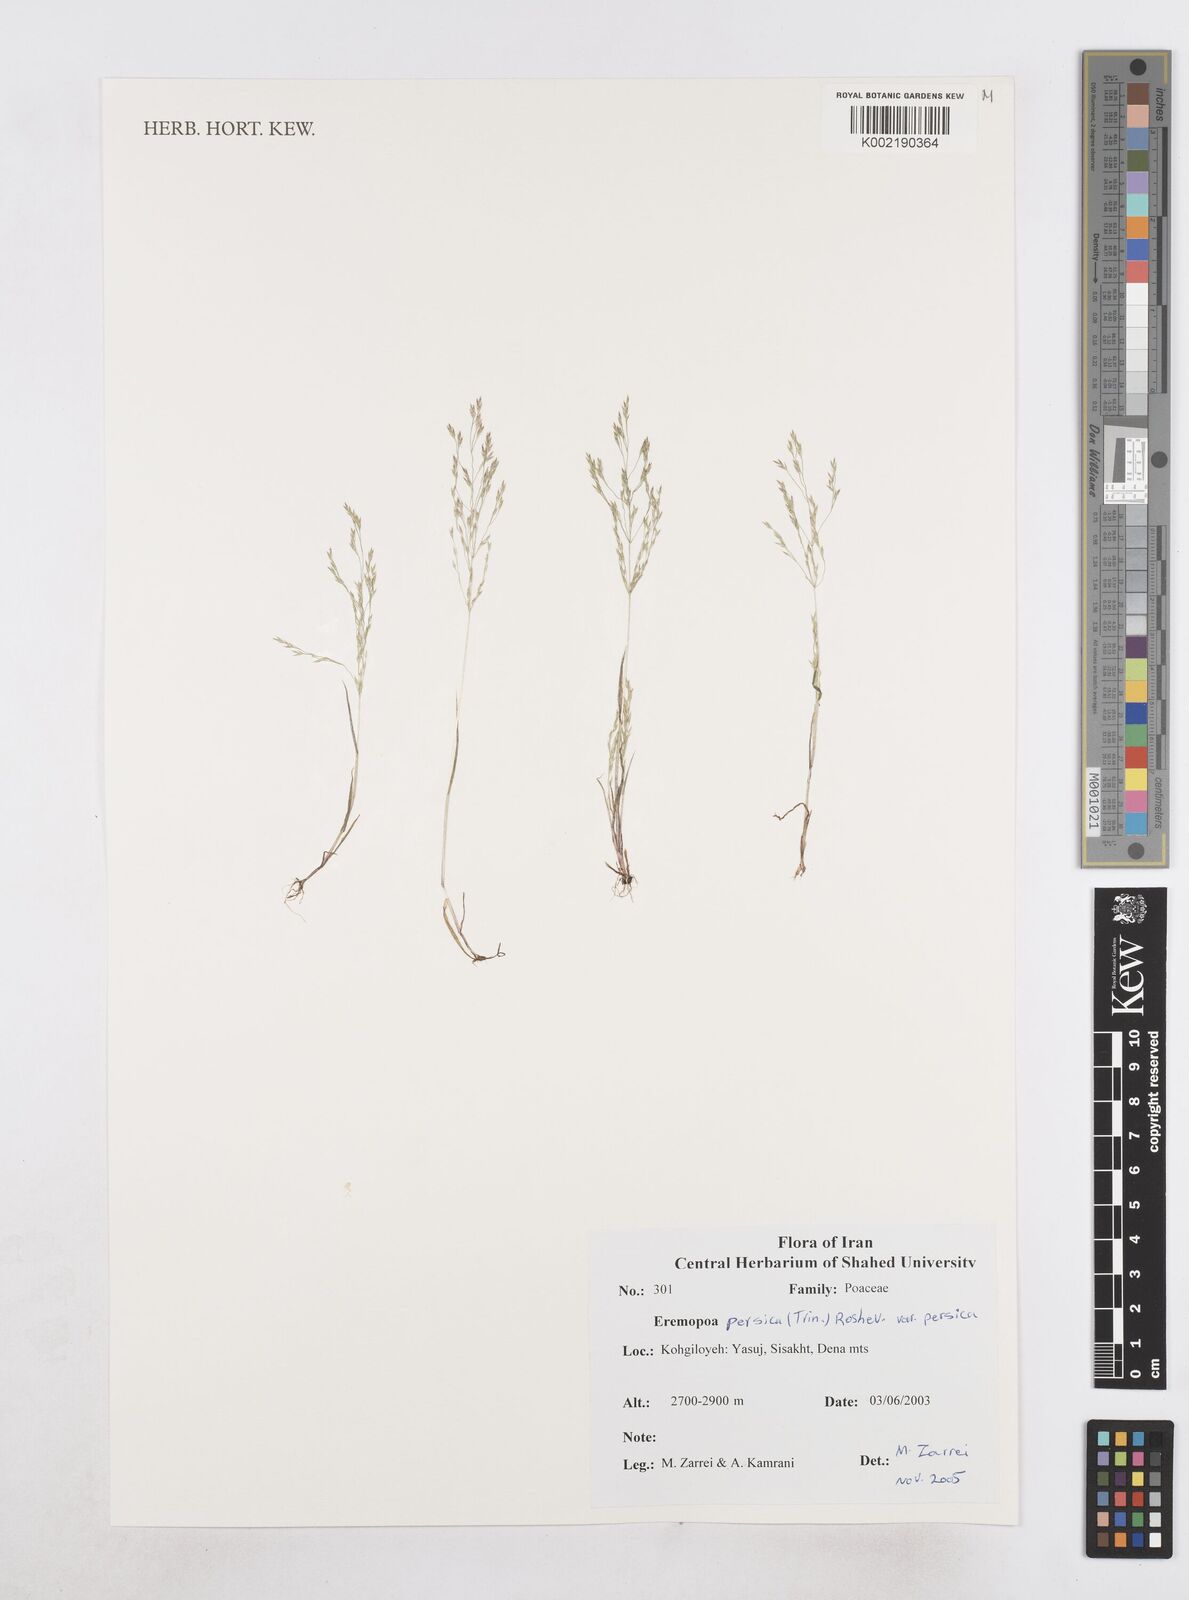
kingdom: Plantae
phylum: Tracheophyta
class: Liliopsida
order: Poales
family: Poaceae
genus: Poa
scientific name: Poa persica
